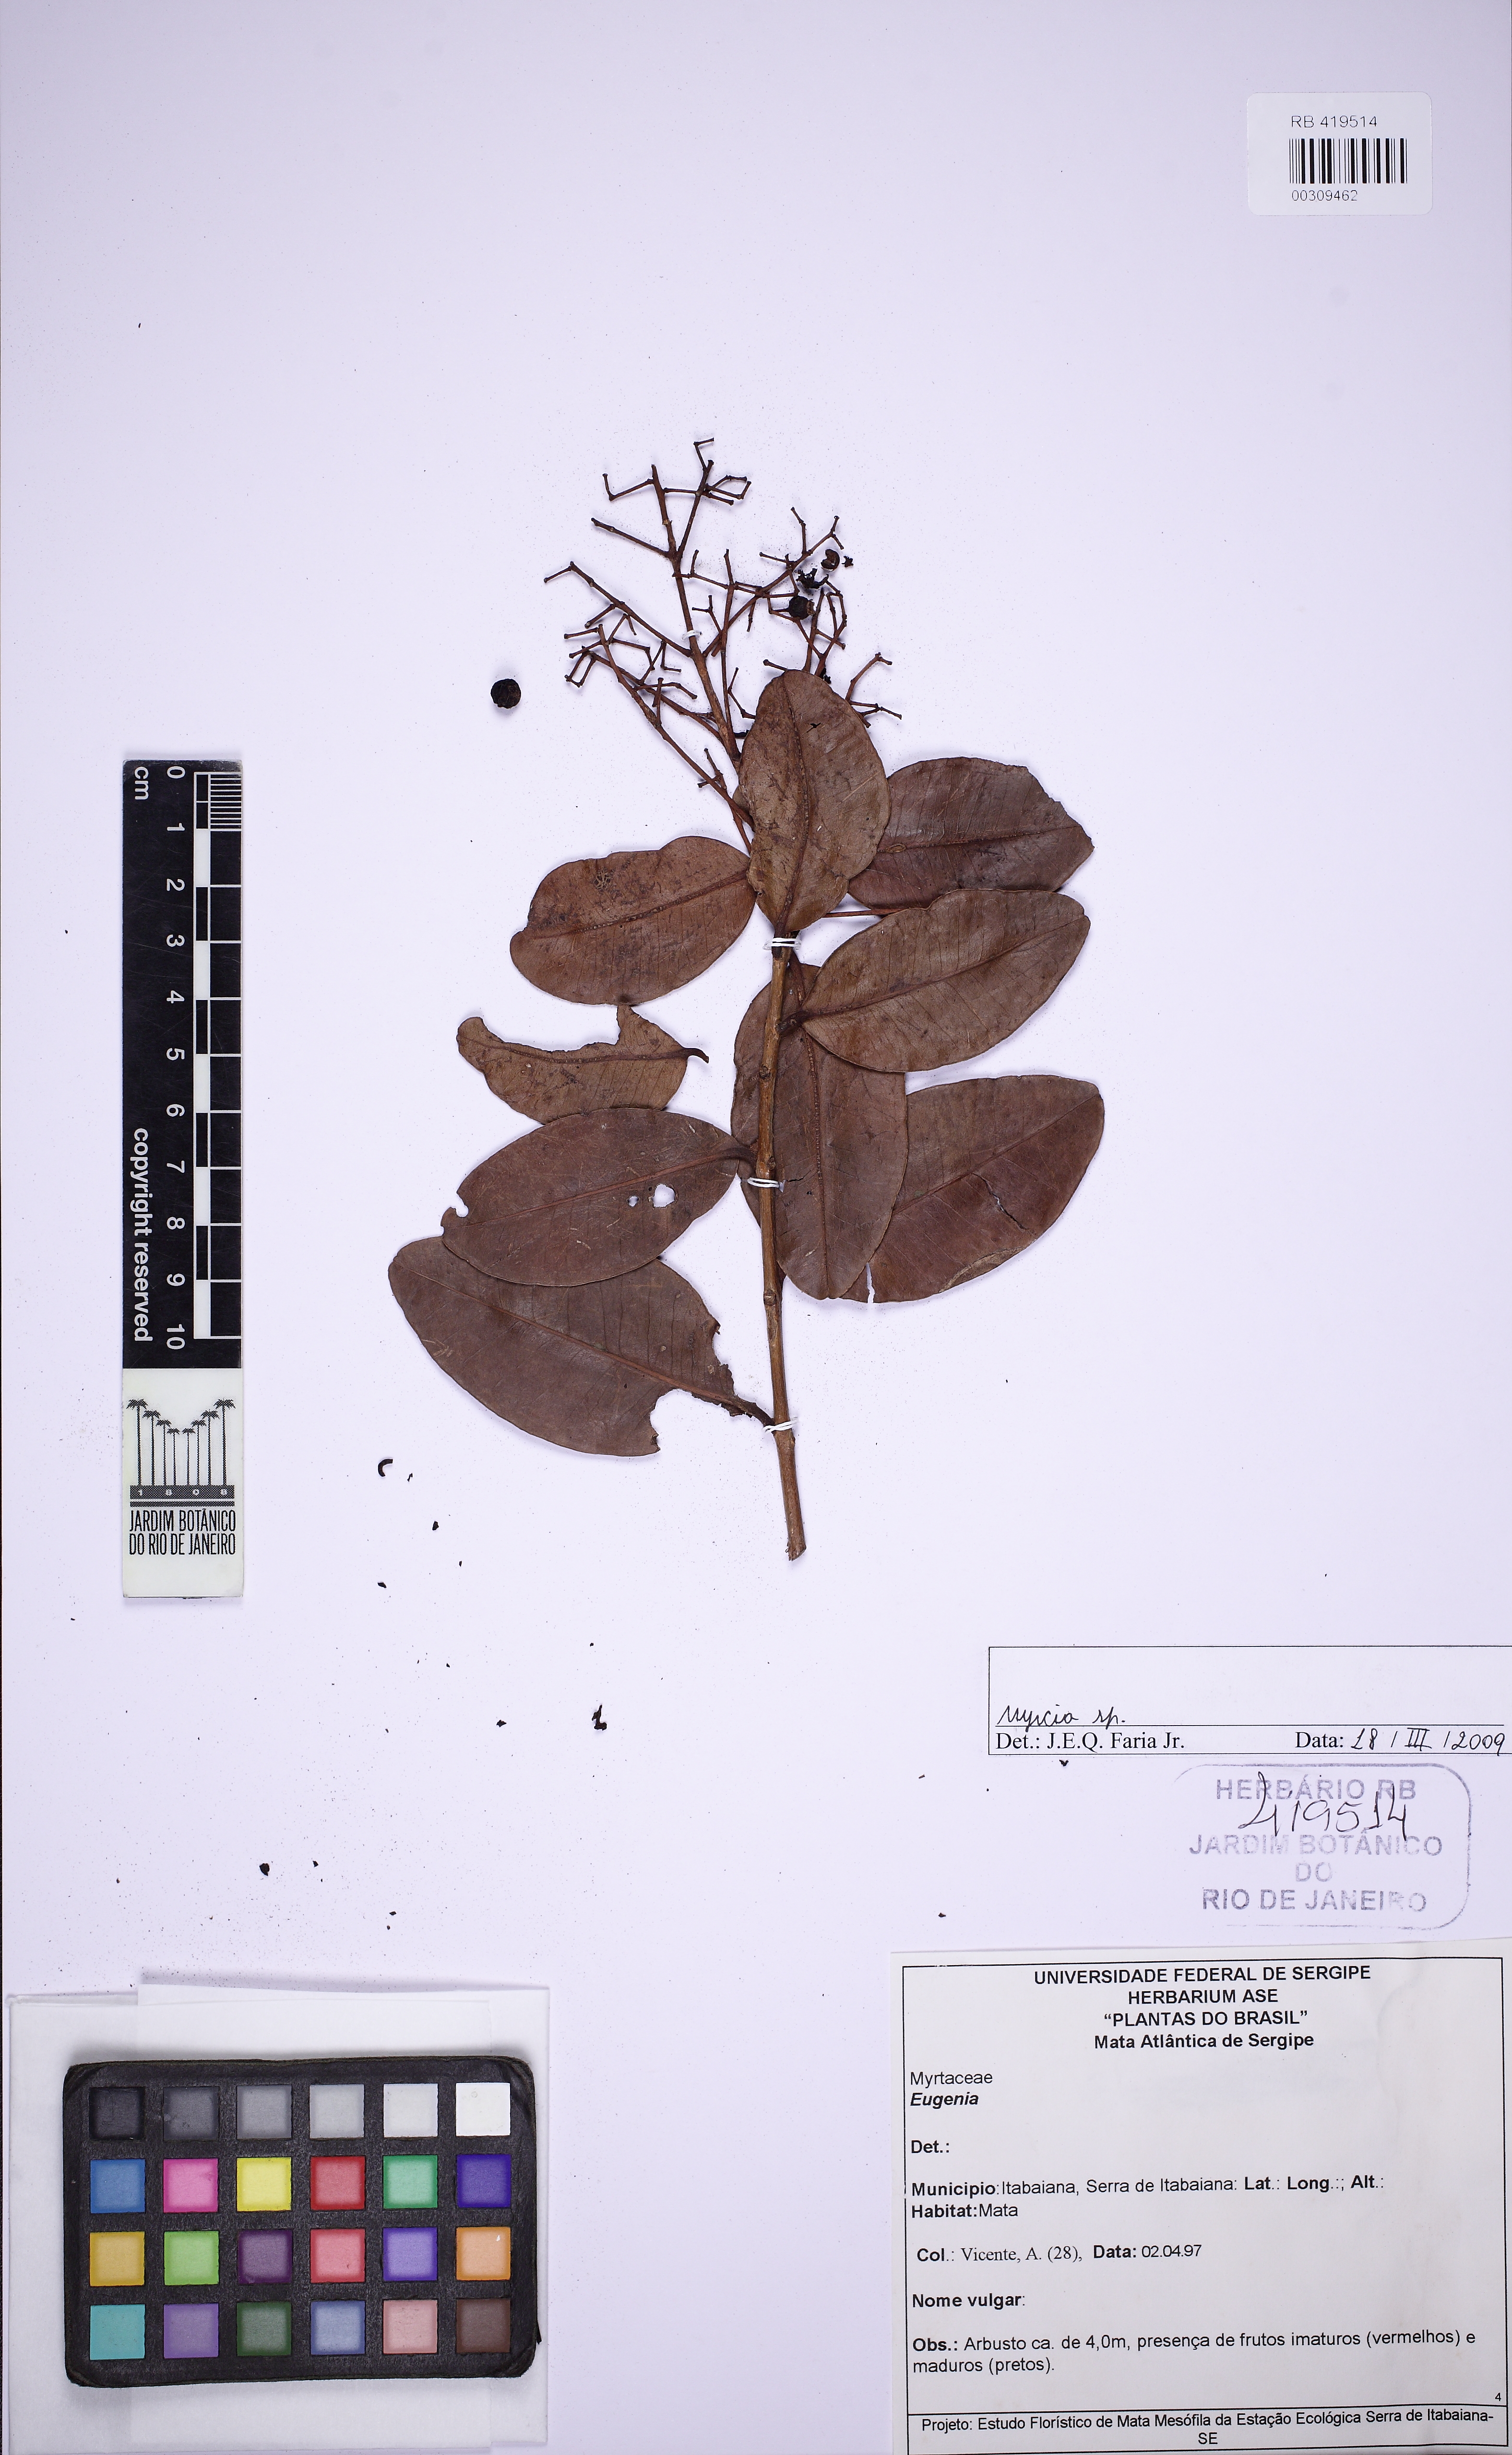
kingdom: Plantae
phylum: Tracheophyta
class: Magnoliopsida
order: Myrtales
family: Myrtaceae
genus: Myrcia
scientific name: Myrcia
